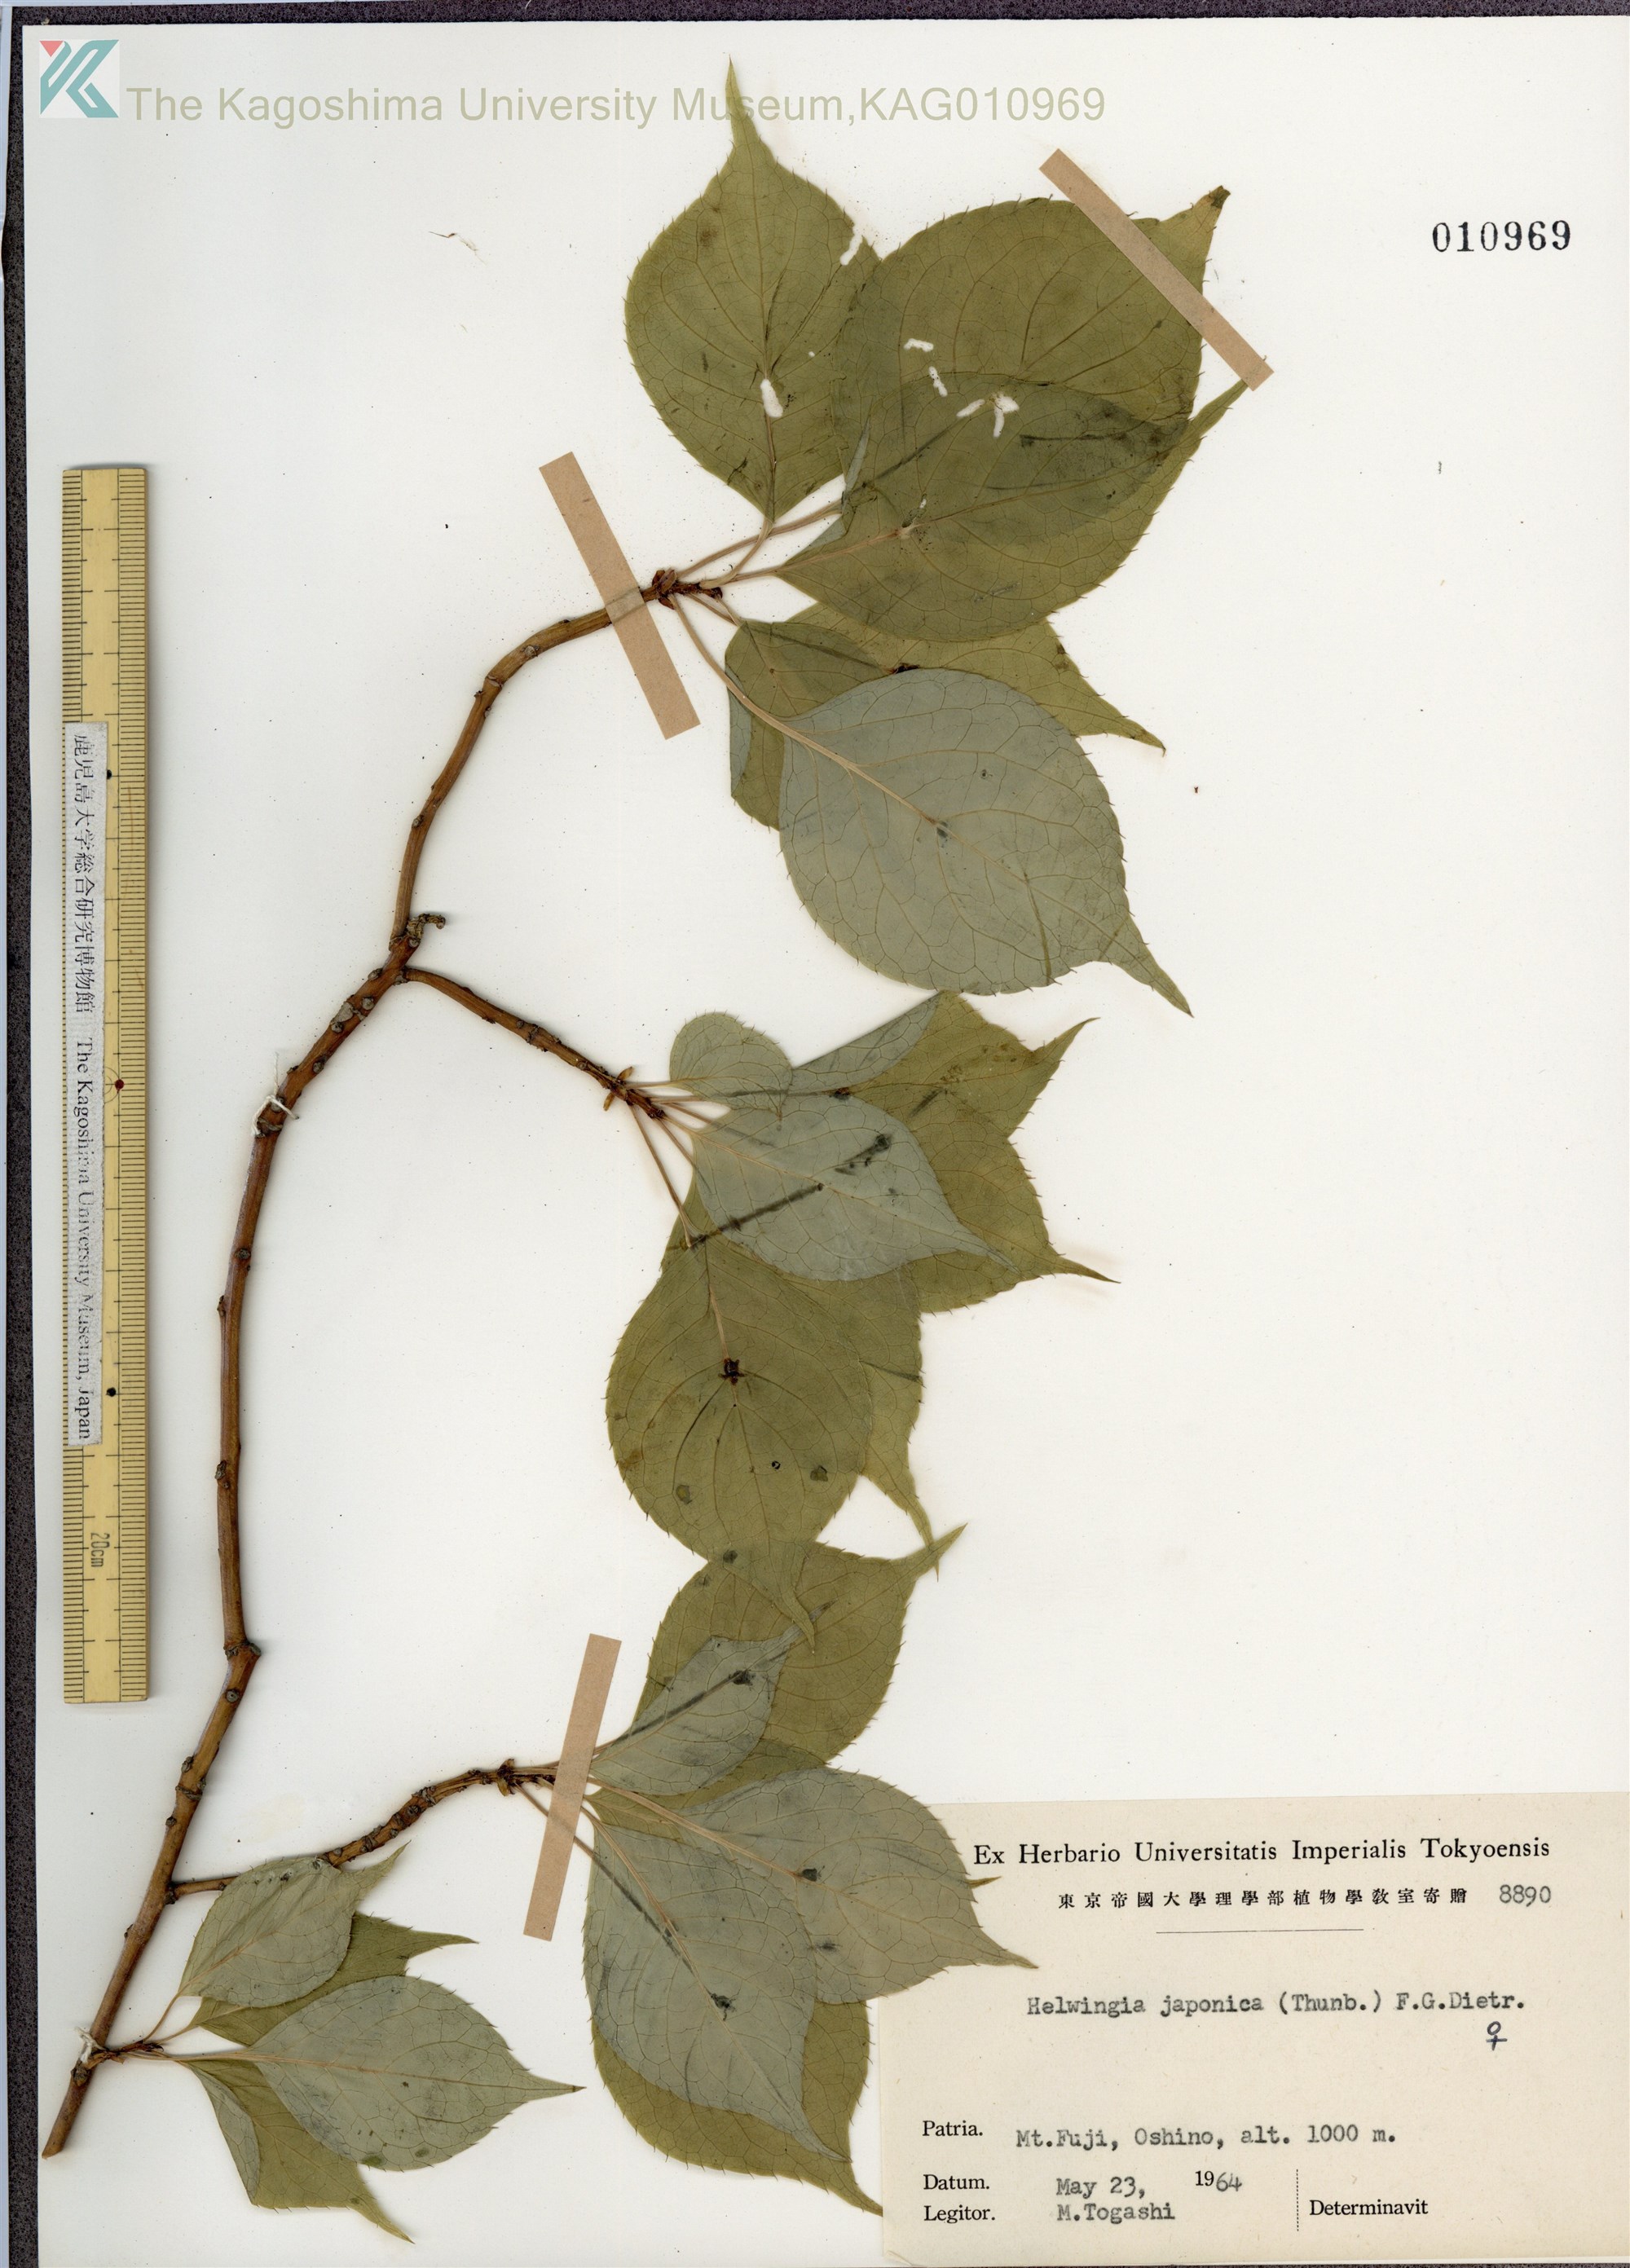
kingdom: Plantae
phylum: Tracheophyta
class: Magnoliopsida
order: Aquifoliales
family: Helwingiaceae
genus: Helwingia
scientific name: Helwingia japonica
